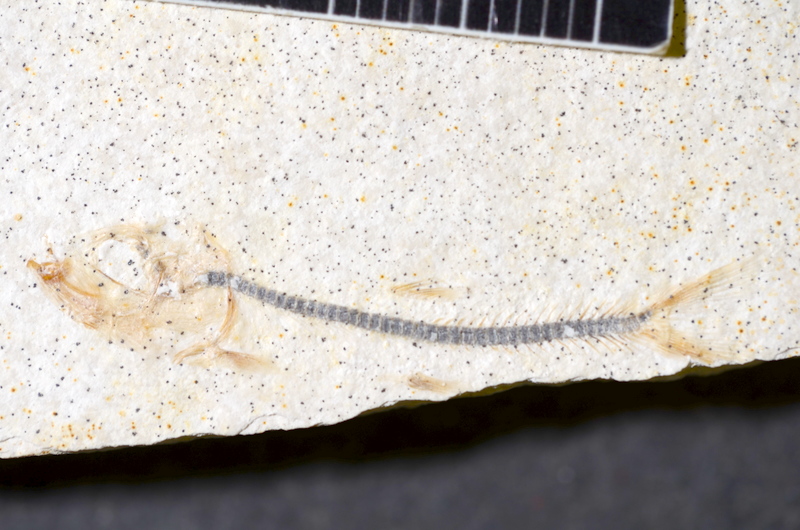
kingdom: Animalia
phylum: Chordata
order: Salmoniformes
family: Orthogonikleithridae
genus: Orthogonikleithrus
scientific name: Orthogonikleithrus hoelli
